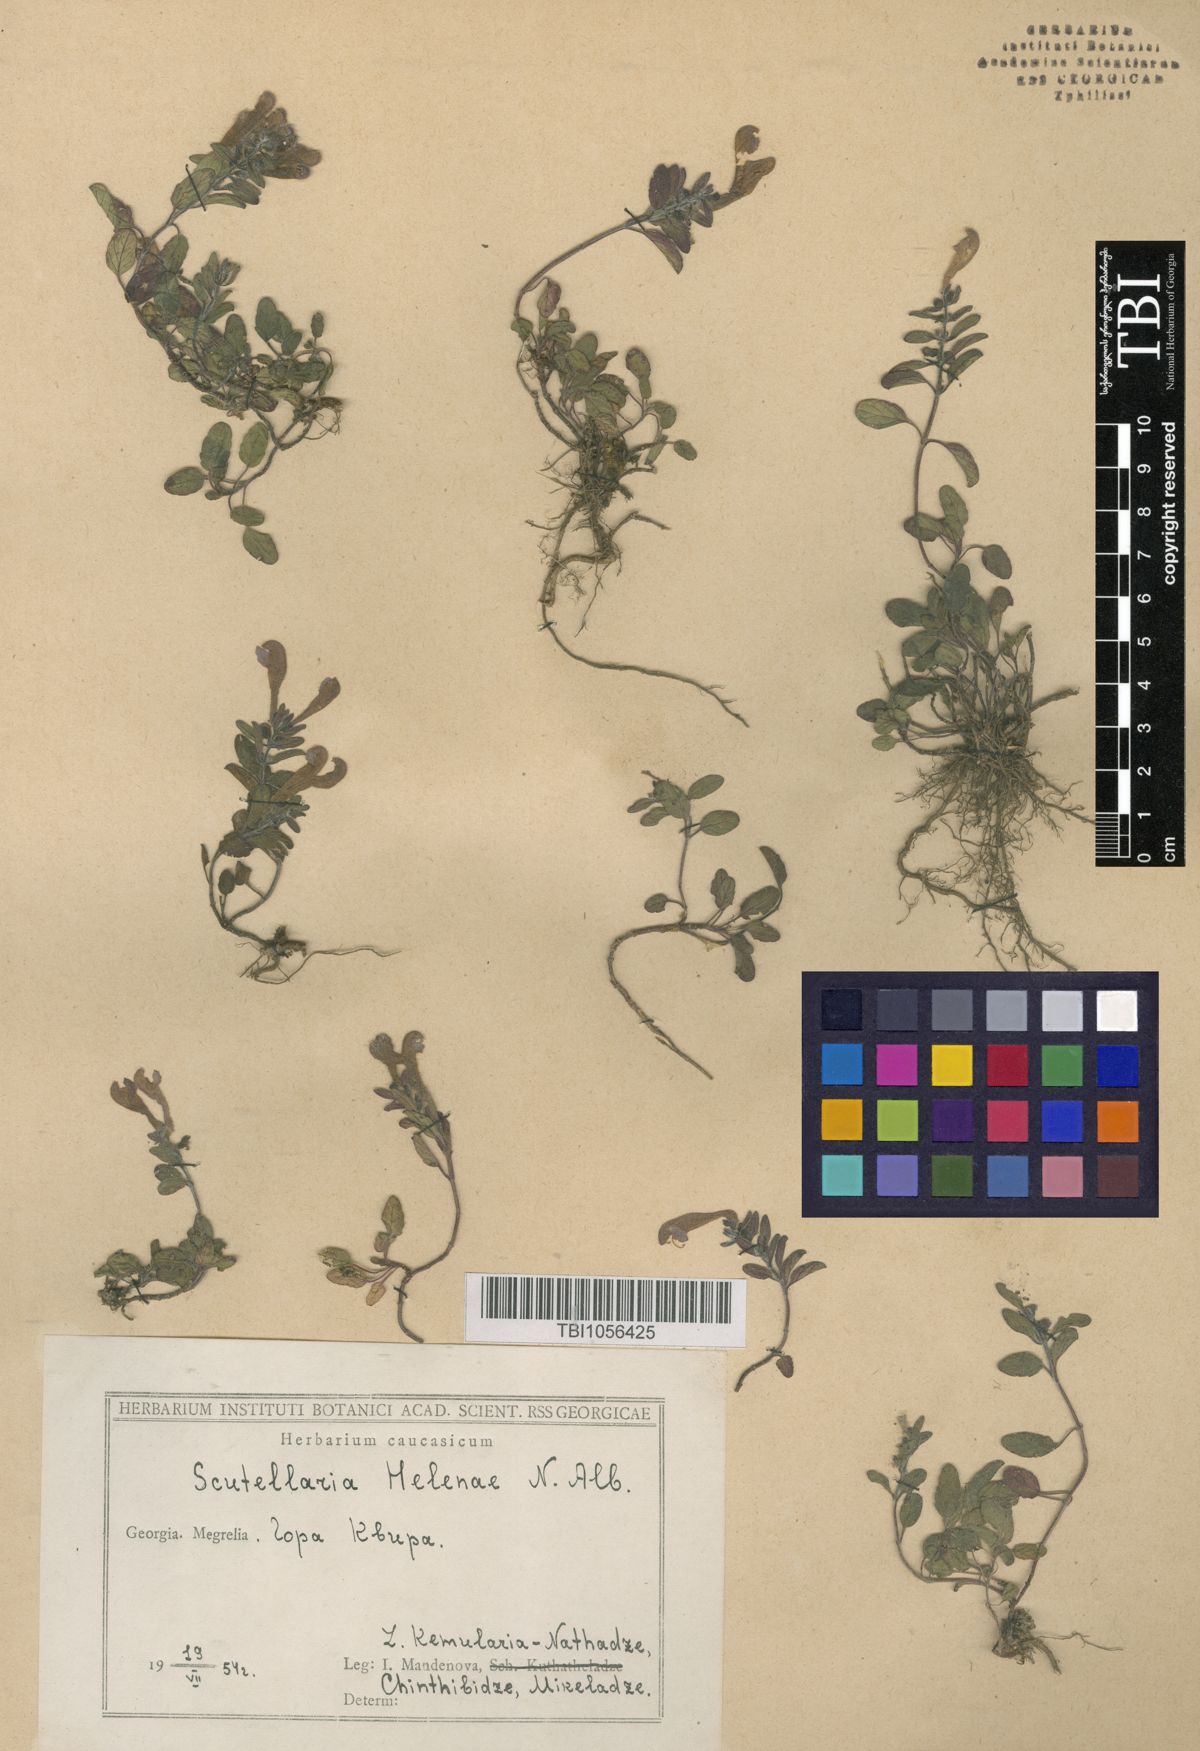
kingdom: Plantae
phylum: Tracheophyta
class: Magnoliopsida
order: Lamiales
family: Lamiaceae
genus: Scutellaria
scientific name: Scutellaria helenae
